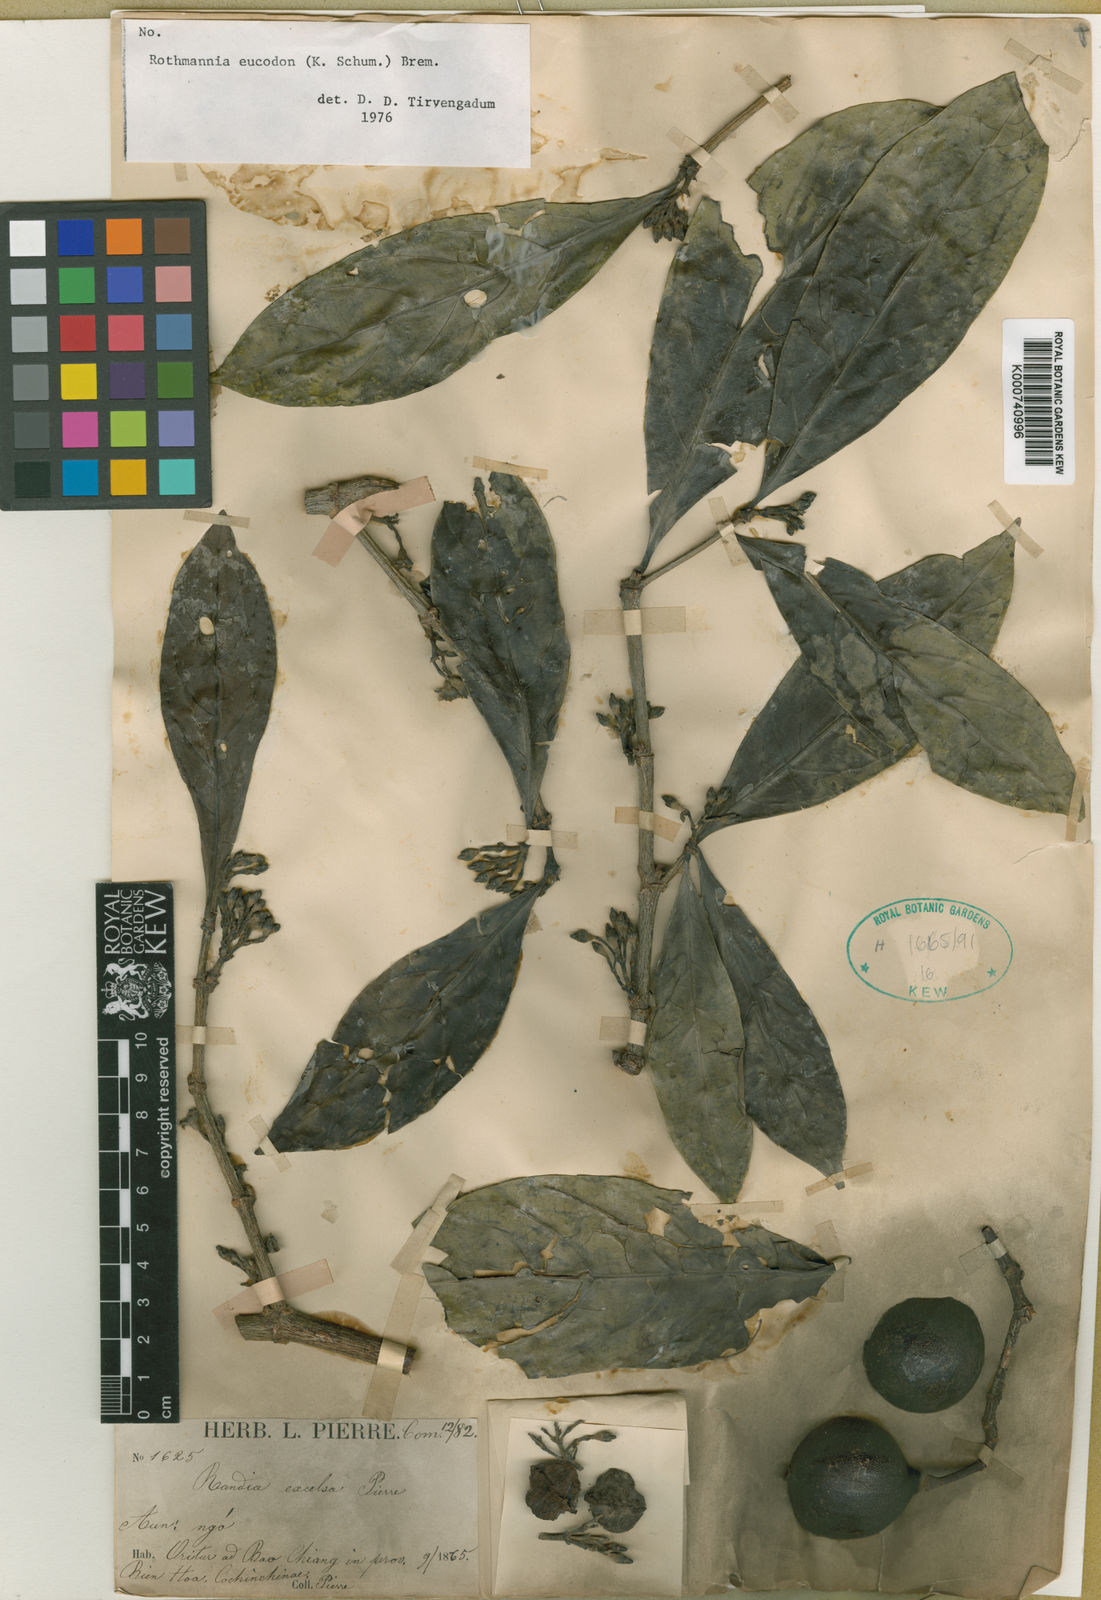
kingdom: Plantae
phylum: Tracheophyta
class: Magnoliopsida
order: Gentianales
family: Rubiaceae
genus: Ridsdalea
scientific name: Ridsdalea eucodon
